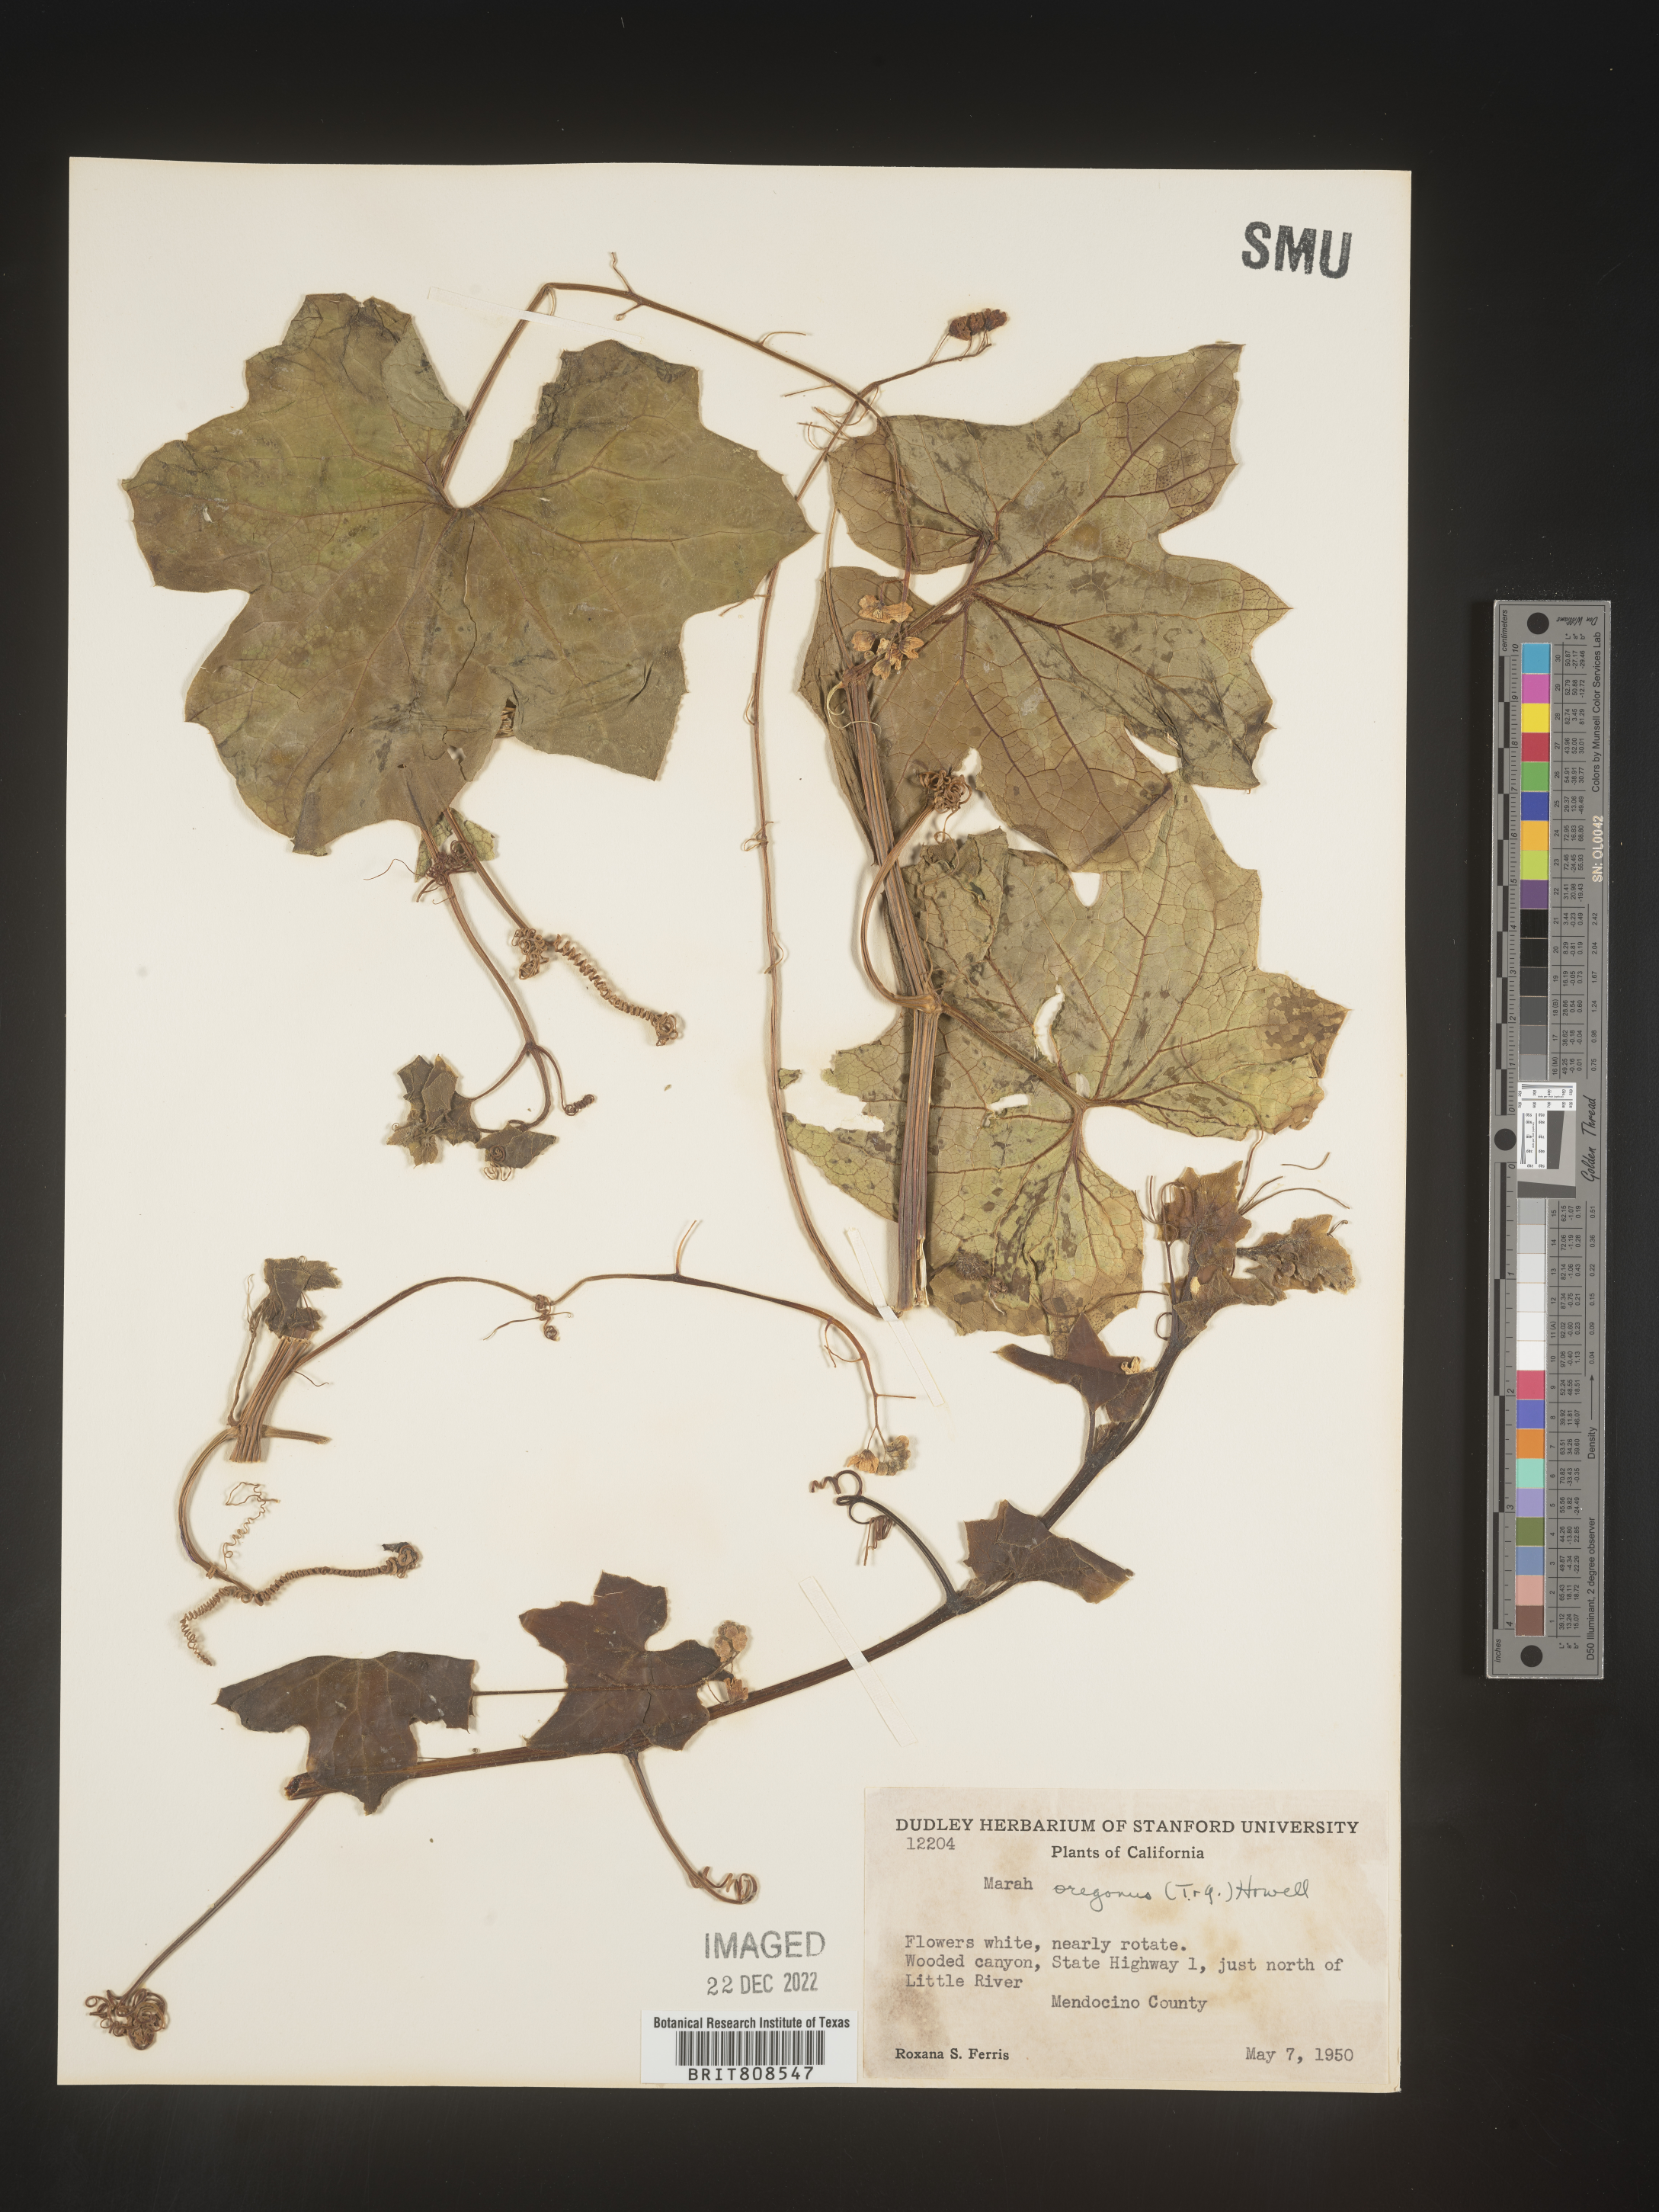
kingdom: Plantae
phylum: Tracheophyta
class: Magnoliopsida
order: Cucurbitales
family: Cucurbitaceae
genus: Marah
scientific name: Marah
